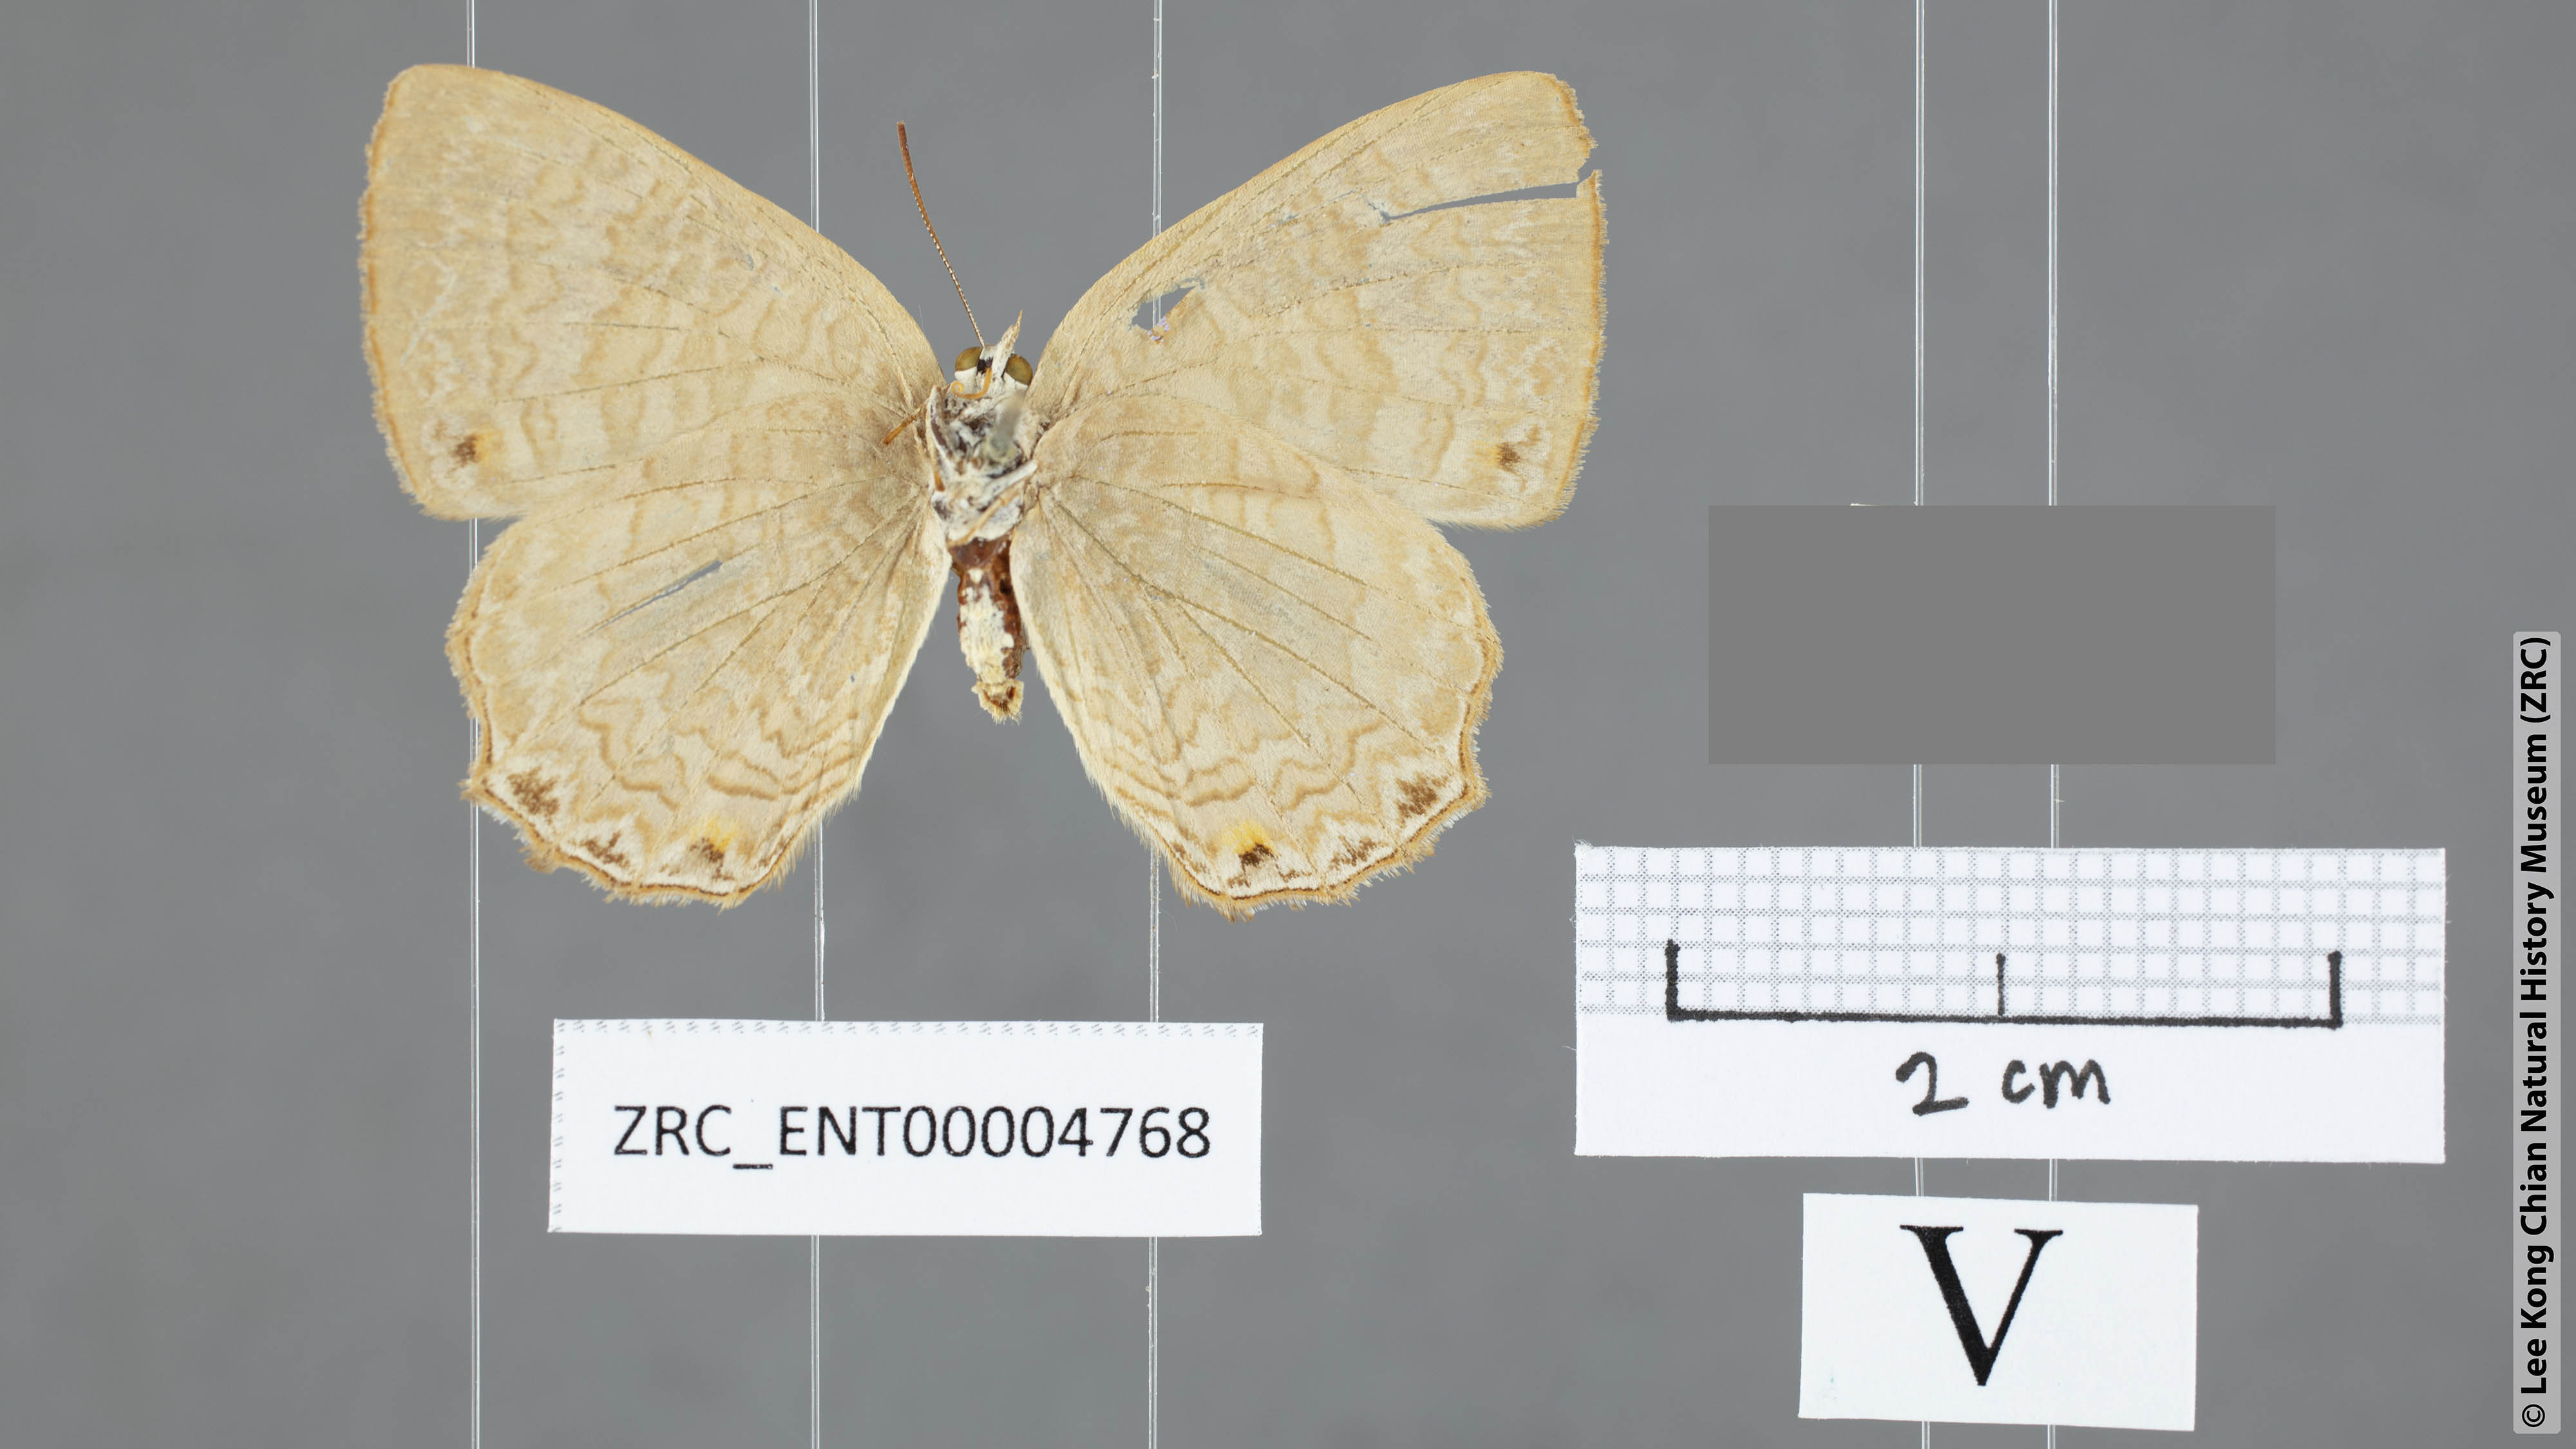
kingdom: Animalia
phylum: Arthropoda
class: Insecta
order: Lepidoptera
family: Lycaenidae
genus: Poritia
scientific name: Poritia promula
